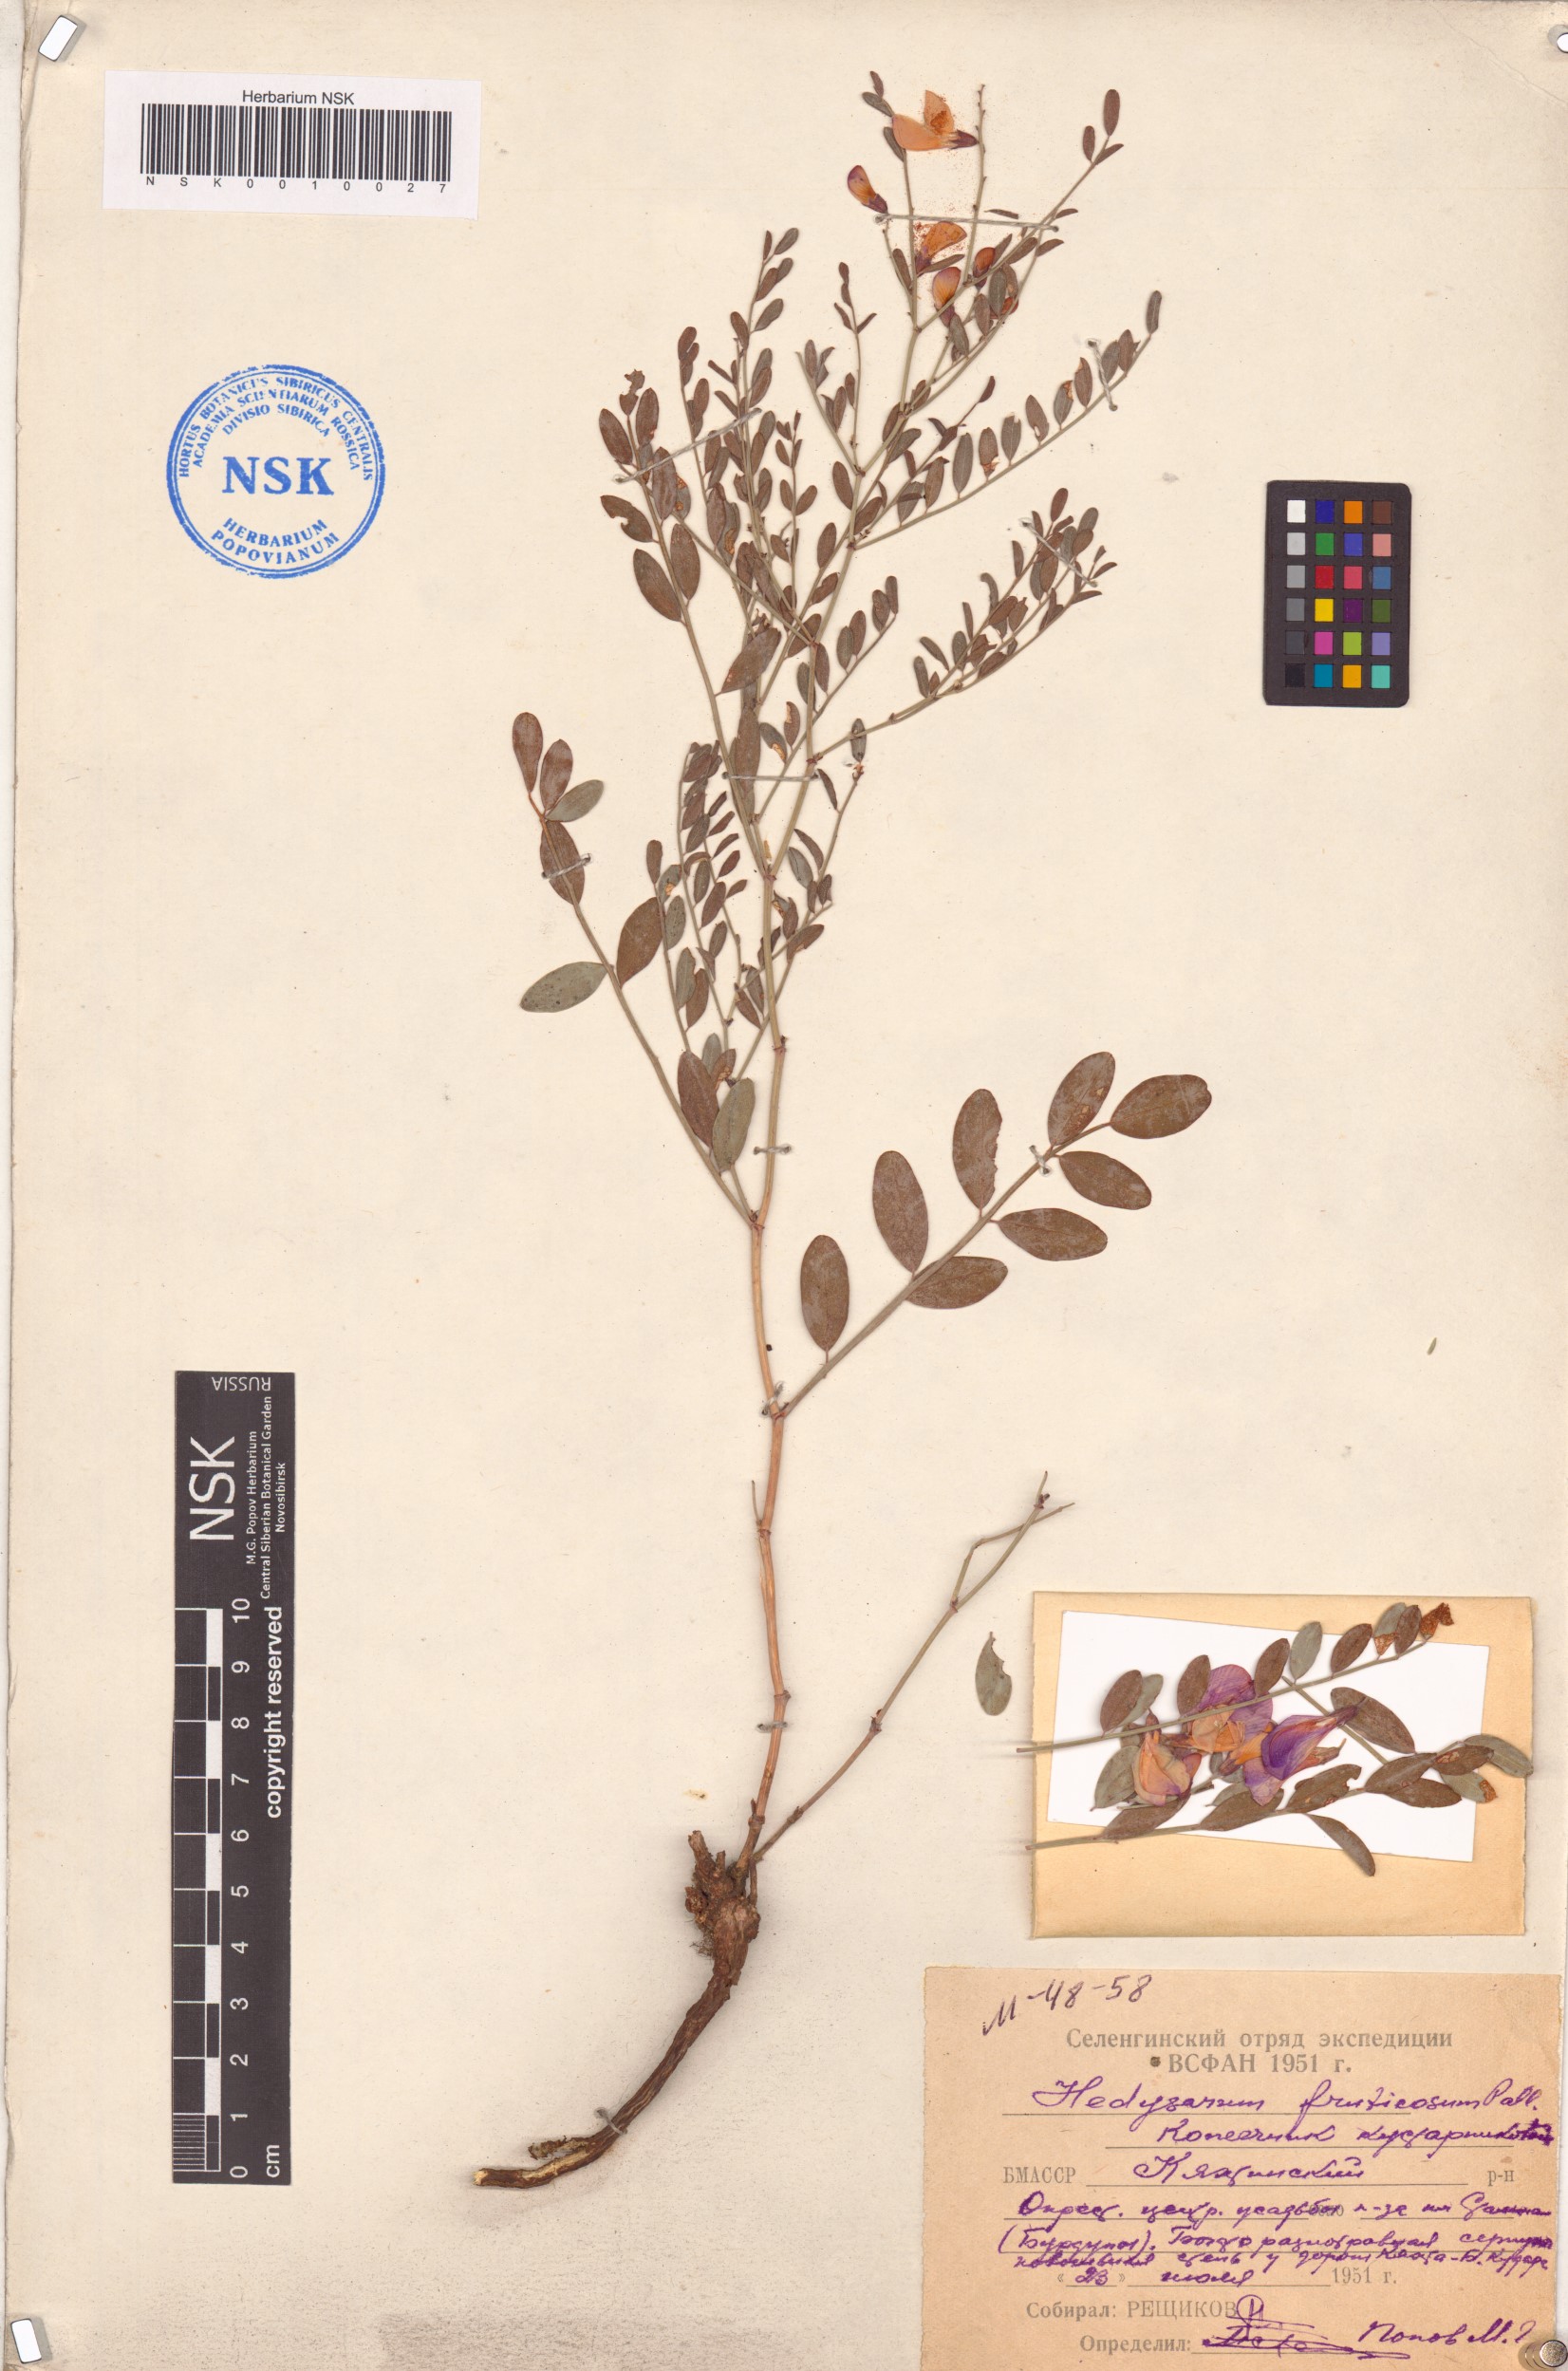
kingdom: Plantae
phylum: Tracheophyta
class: Magnoliopsida
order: Fabales
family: Fabaceae
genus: Corethrodendron
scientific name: Corethrodendron fruticosum
